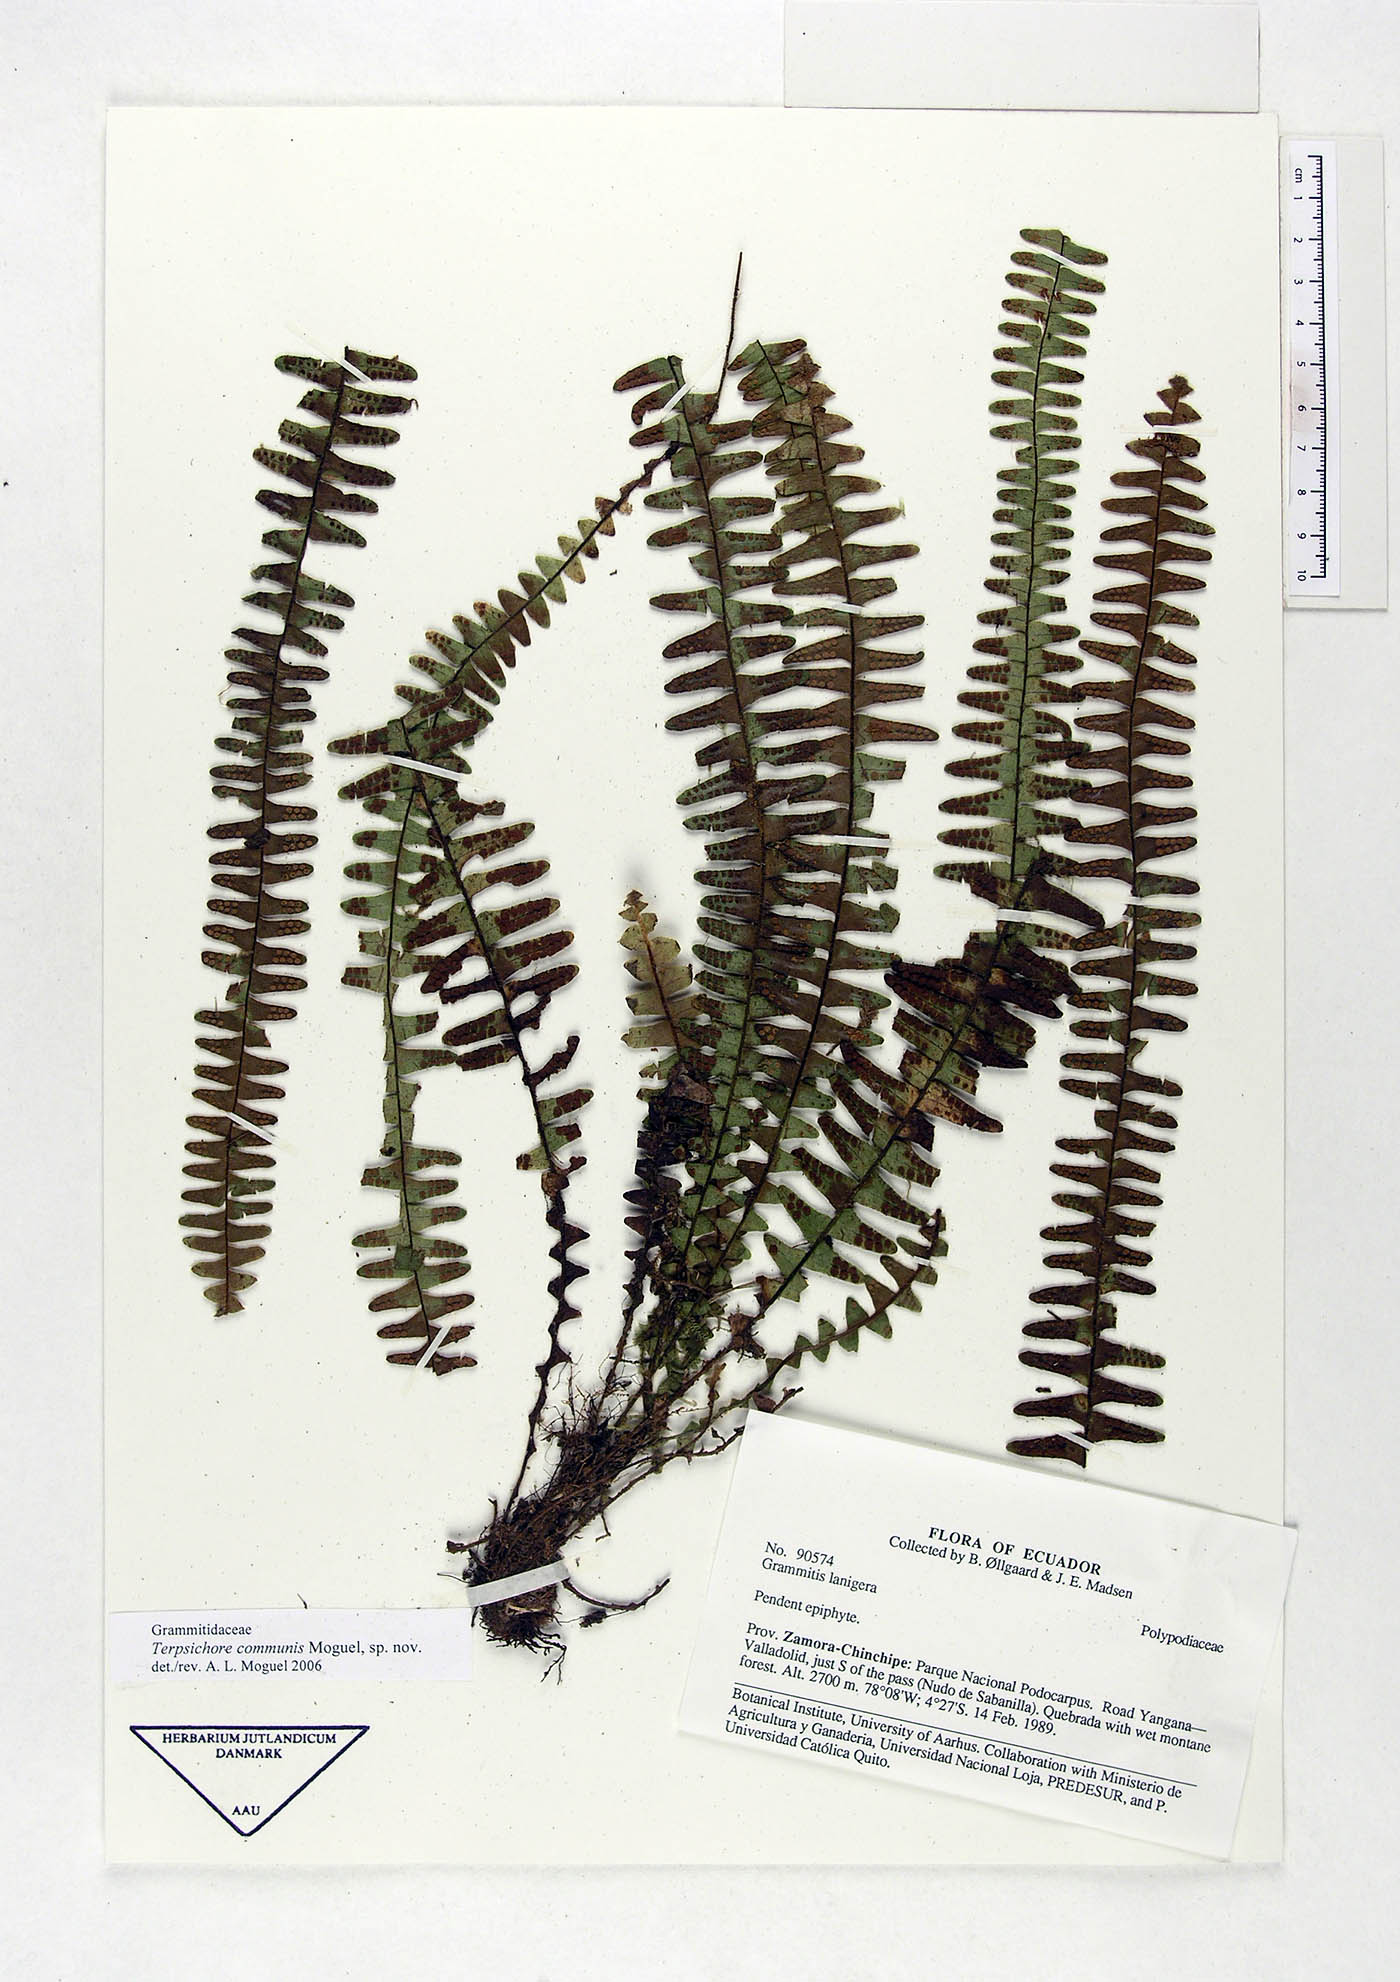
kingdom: Plantae
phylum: Tracheophyta
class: Polypodiopsida
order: Polypodiales
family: Polypodiaceae
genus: Terpsichore
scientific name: Terpsichore communis
